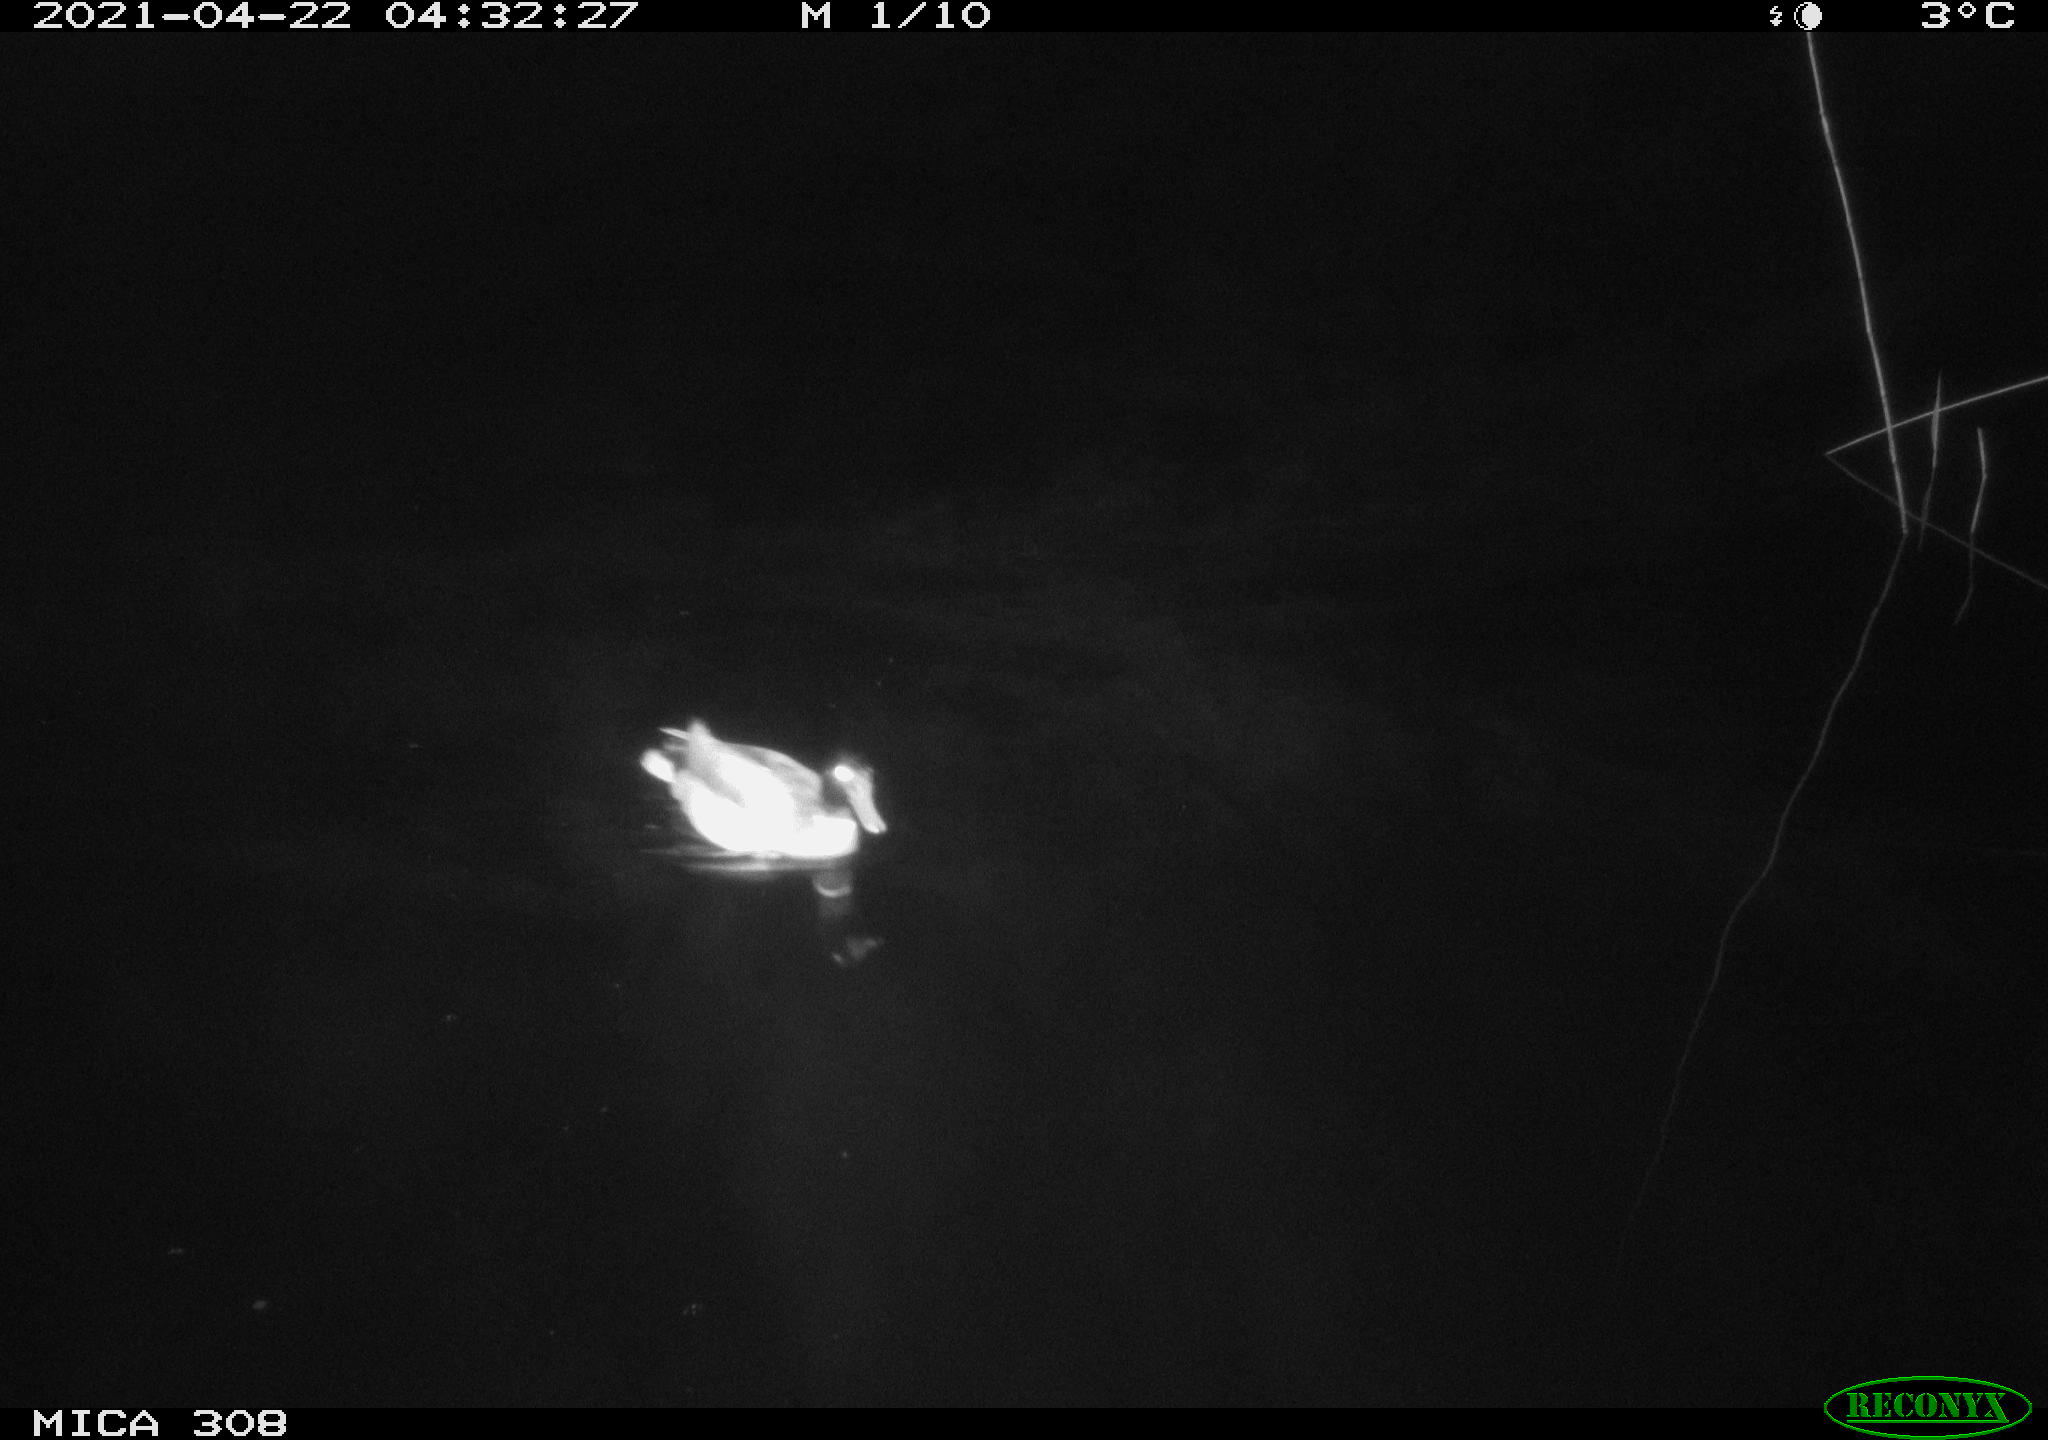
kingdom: Animalia
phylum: Chordata
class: Aves
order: Gruiformes
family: Rallidae
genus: Gallinula
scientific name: Gallinula chloropus
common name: Common moorhen
